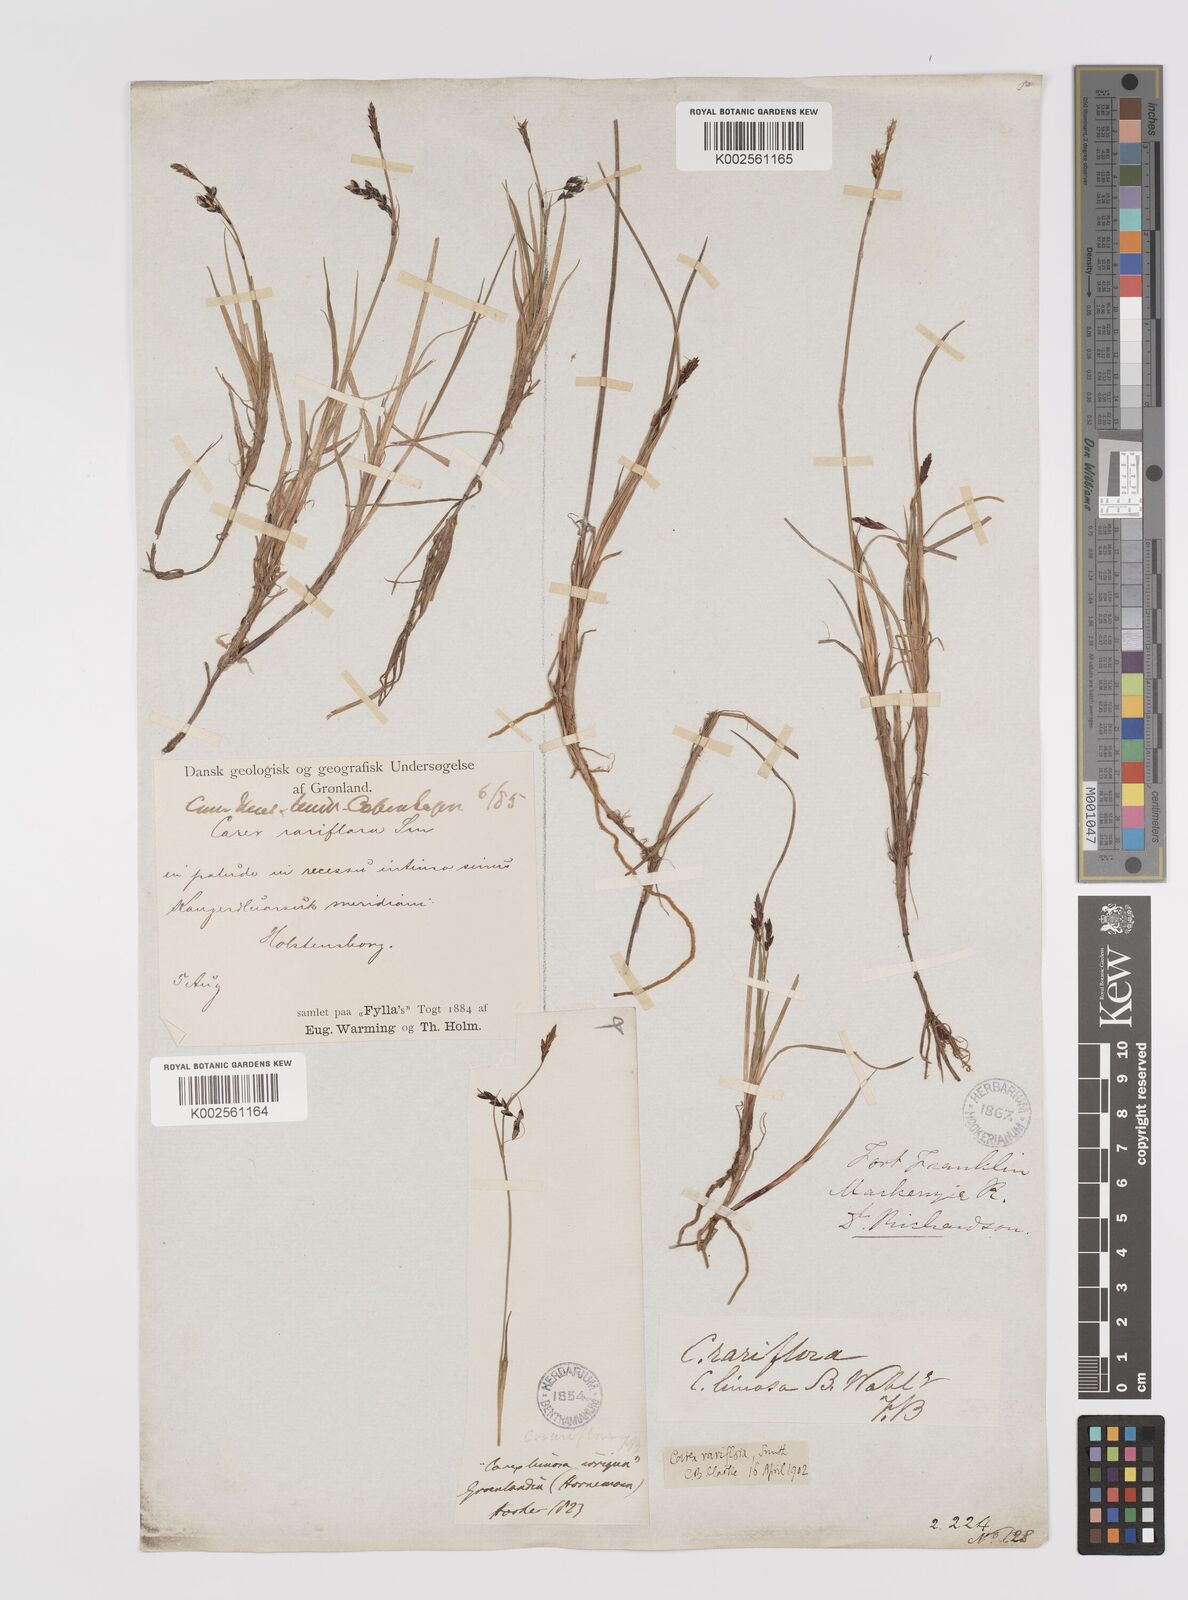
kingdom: Plantae
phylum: Tracheophyta
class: Liliopsida
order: Poales
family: Cyperaceae
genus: Carex
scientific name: Carex rariflora
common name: Loose-flowered alpine sedge
